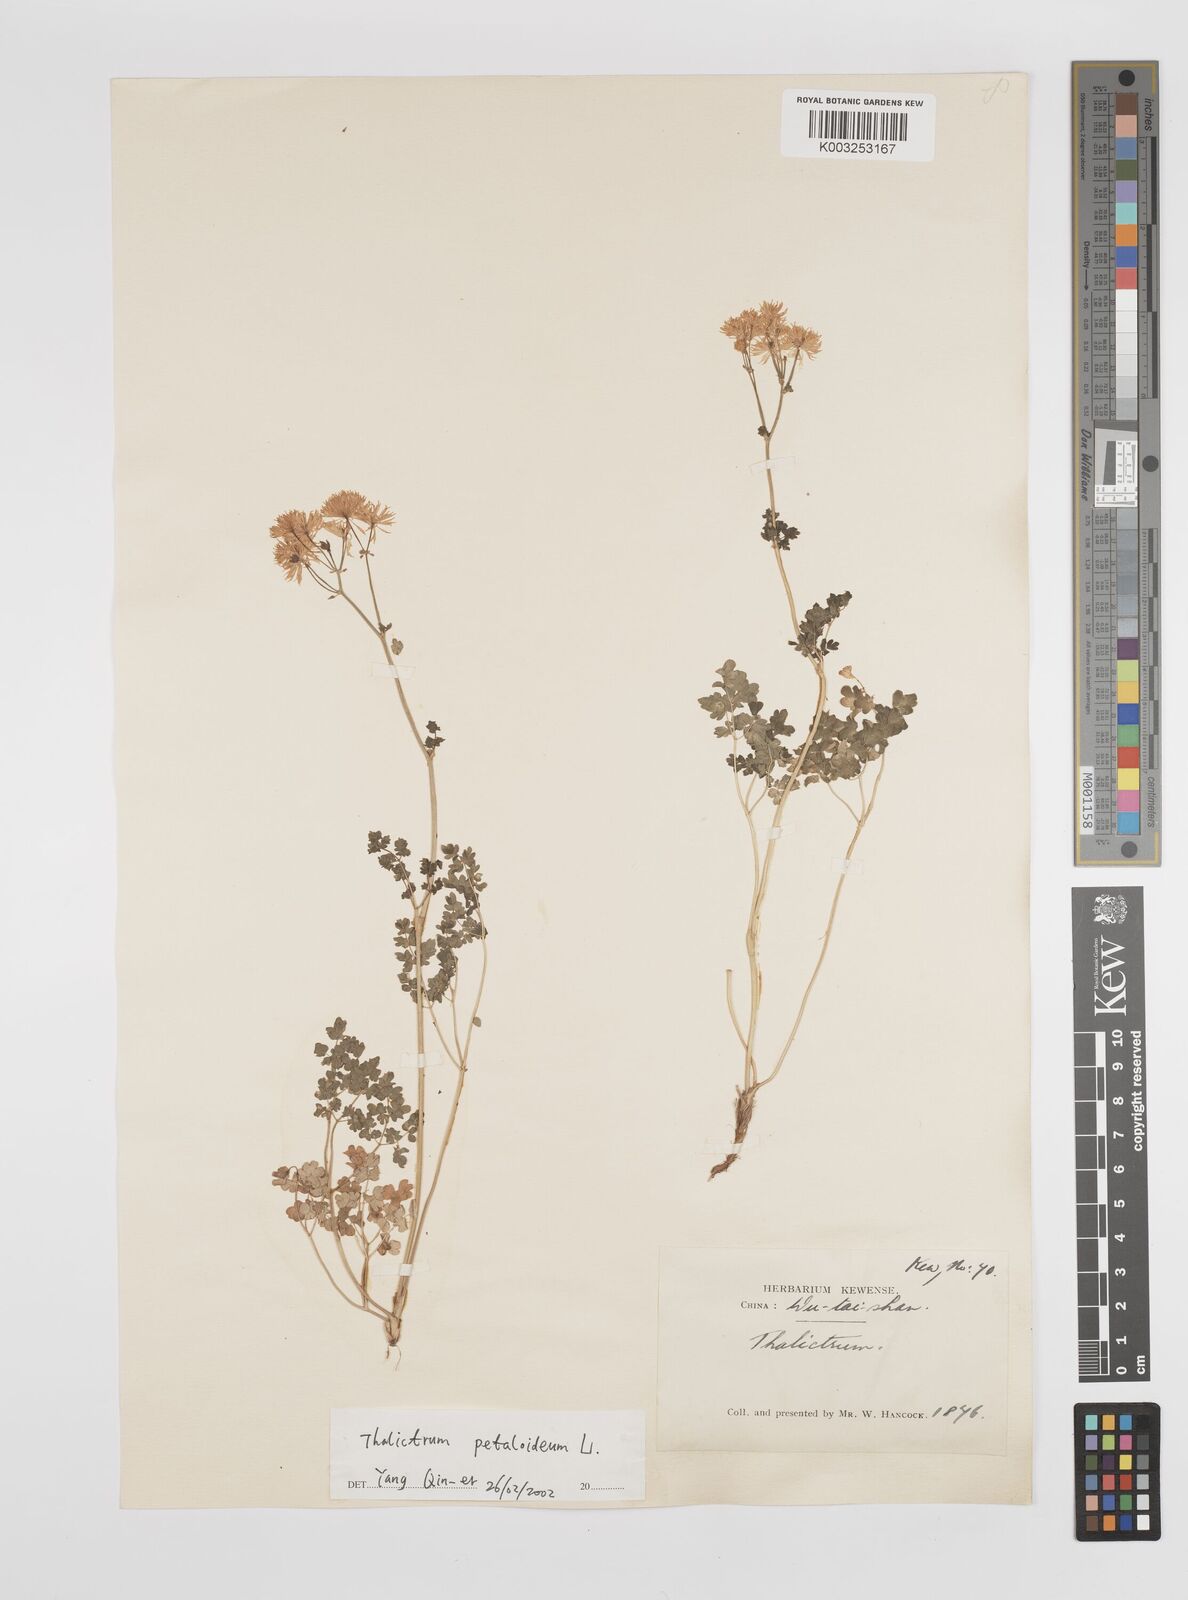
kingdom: Plantae
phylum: Tracheophyta
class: Magnoliopsida
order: Ranunculales
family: Ranunculaceae
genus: Thalictrum
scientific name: Thalictrum petaloideum
